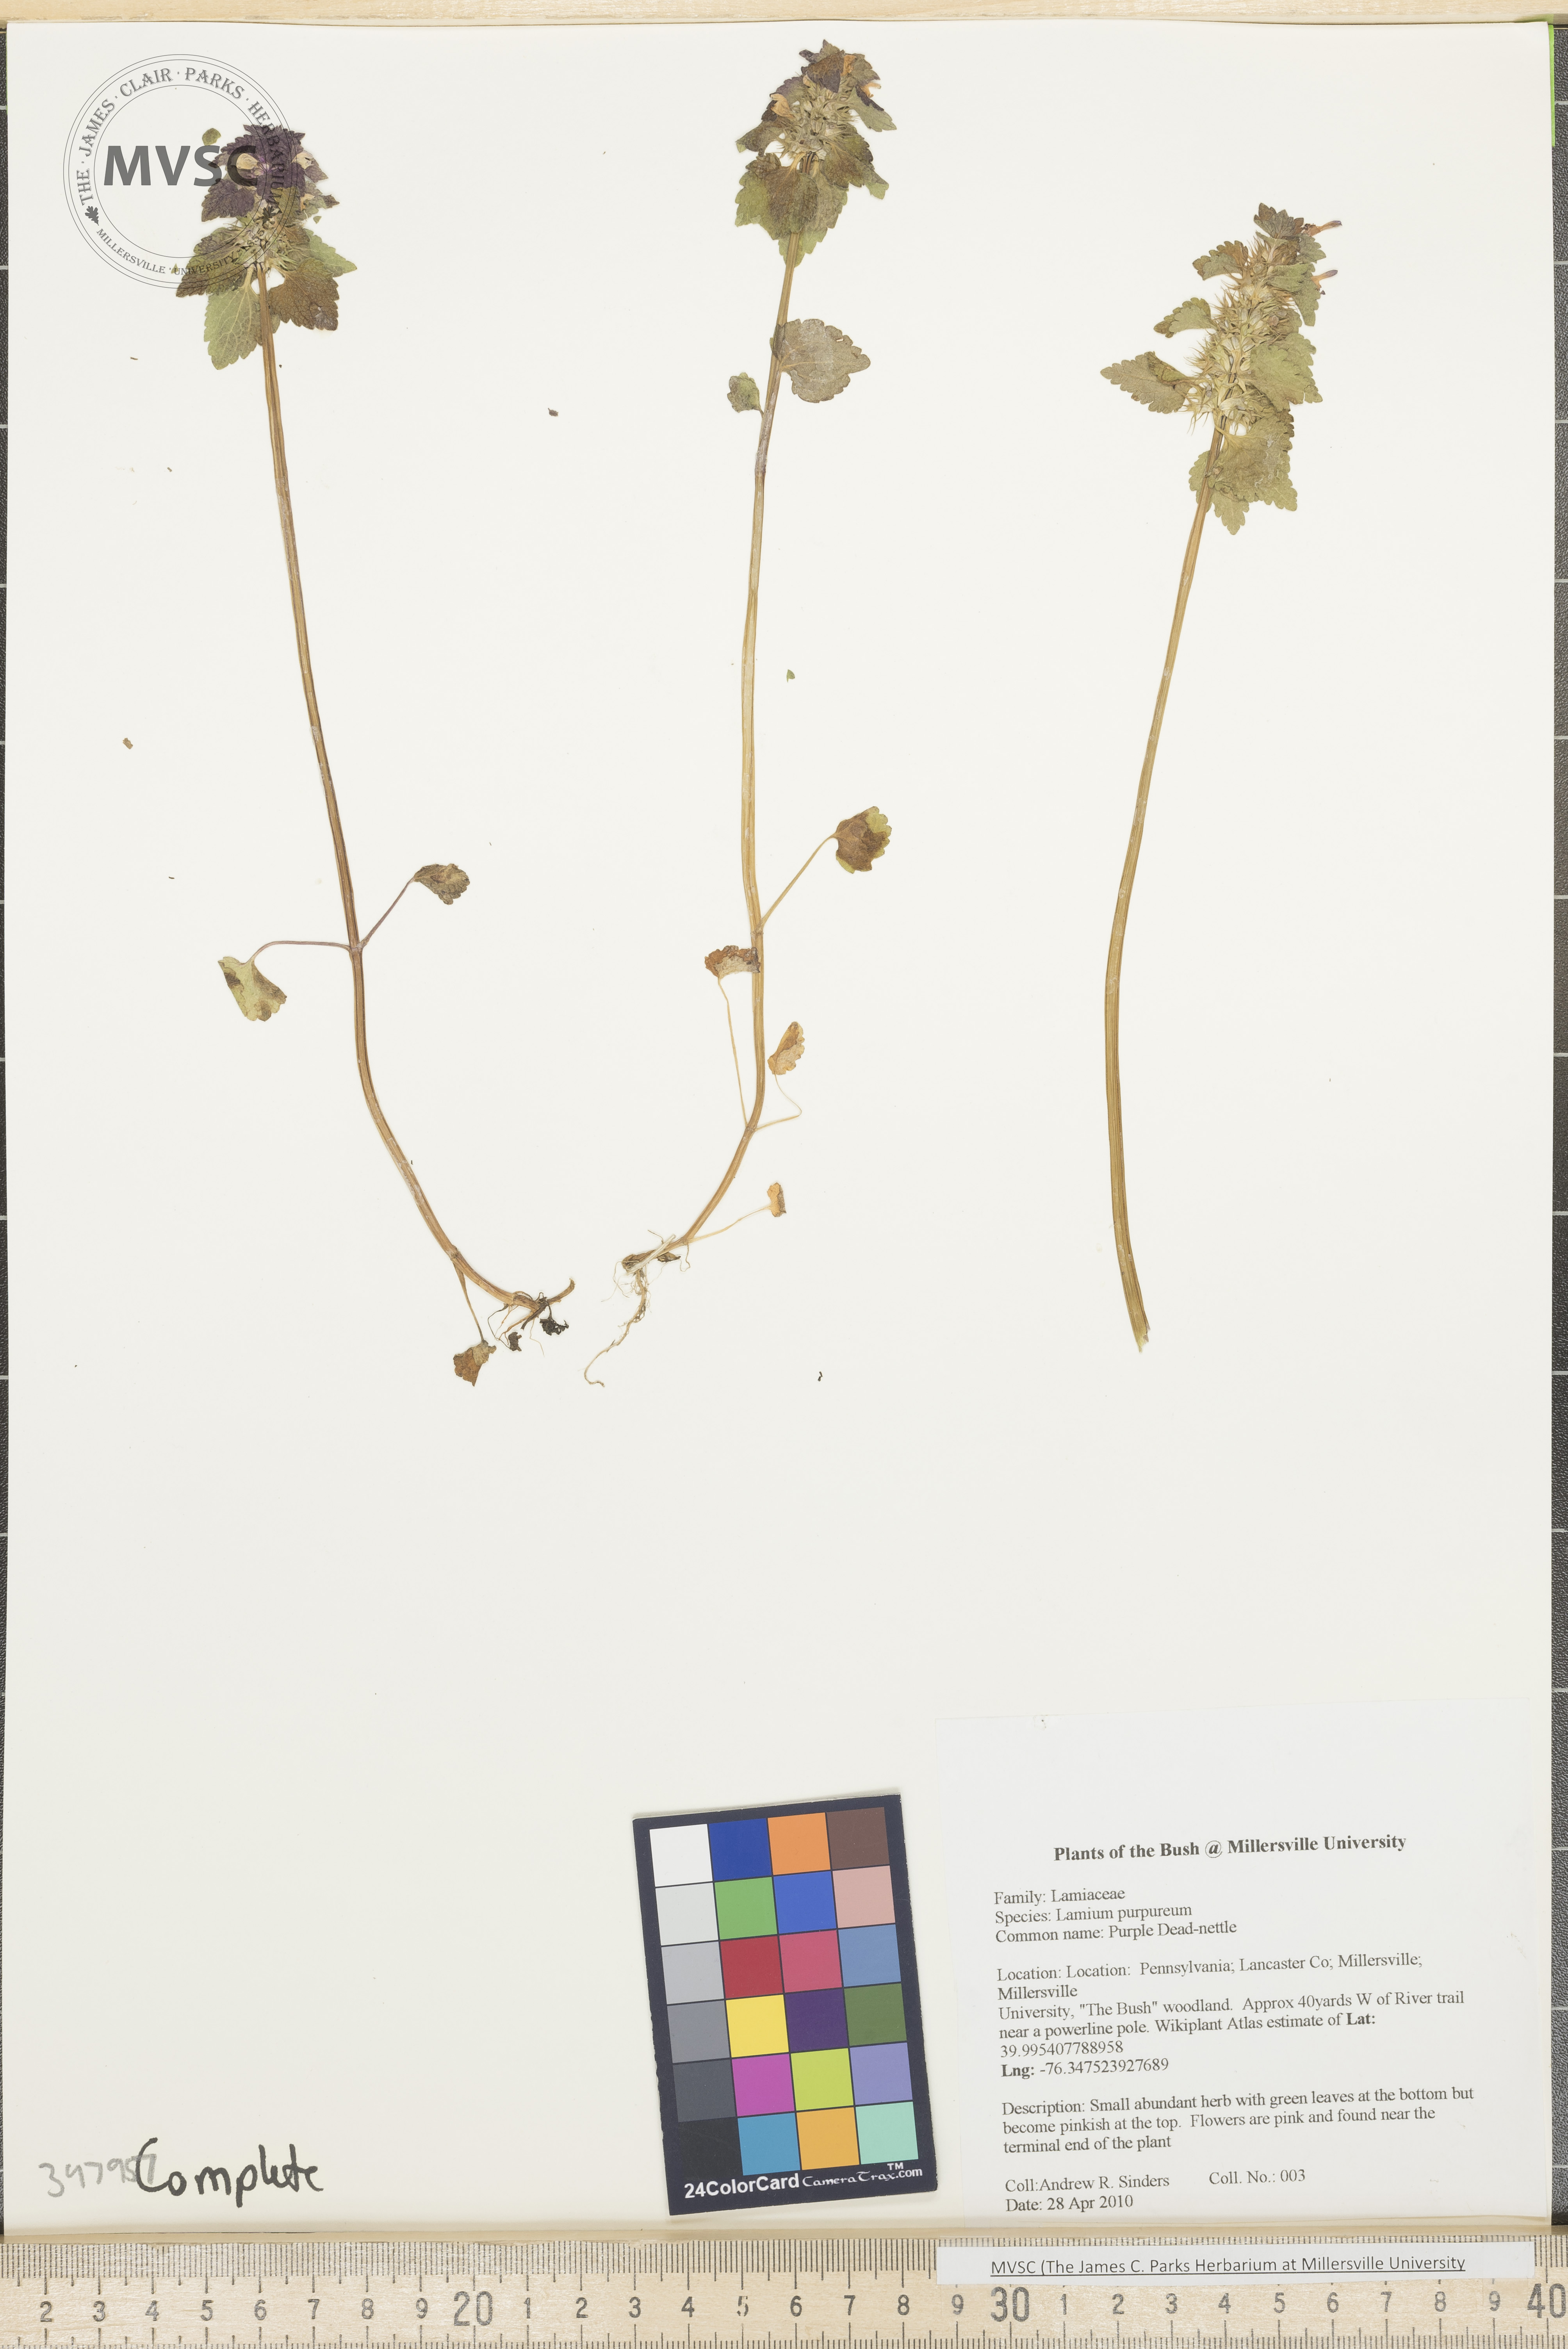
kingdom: Plantae
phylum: Tracheophyta
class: Magnoliopsida
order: Lamiales
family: Lamiaceae
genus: Lamium
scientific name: Lamium purpureum
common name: Purple dead-nettle
